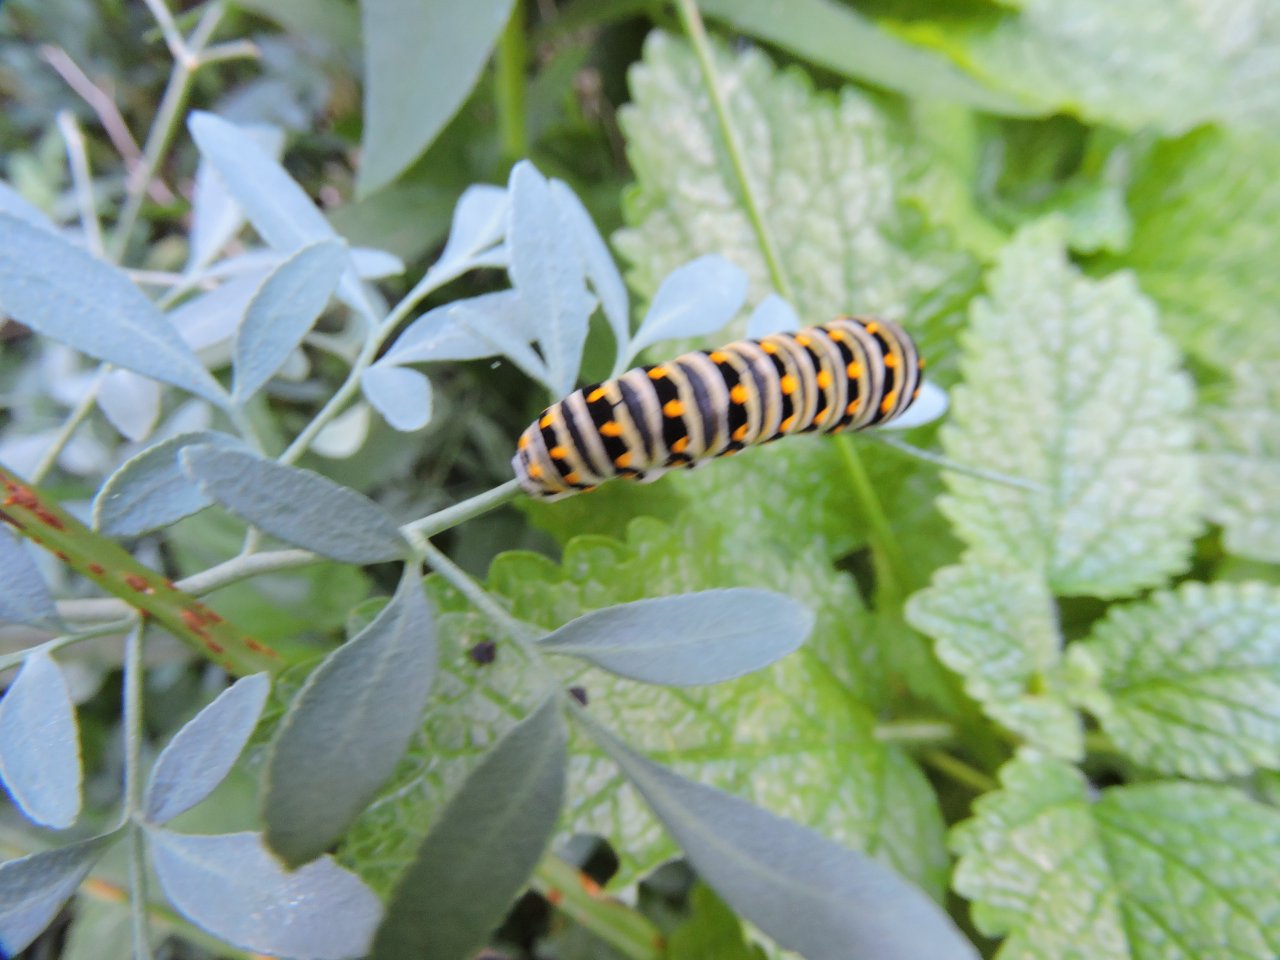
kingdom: Animalia
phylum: Arthropoda
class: Insecta
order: Lepidoptera
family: Papilionidae
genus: Papilio
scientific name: Papilio polyxenes
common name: Black Swallowtail
